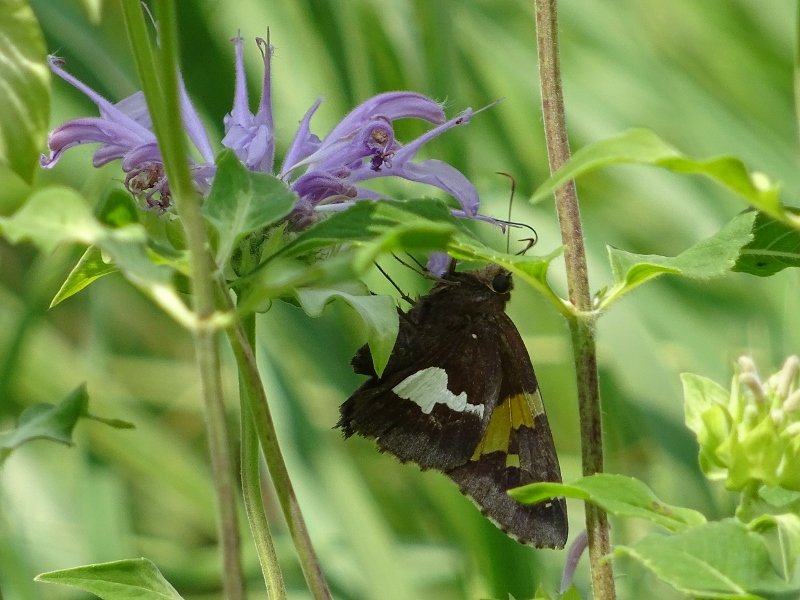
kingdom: Animalia
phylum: Arthropoda
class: Insecta
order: Lepidoptera
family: Hesperiidae
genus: Epargyreus
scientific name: Epargyreus clarus
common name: Silver-spotted Skipper
